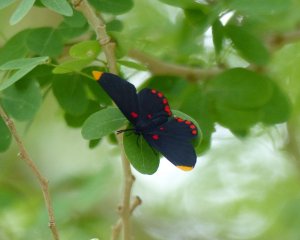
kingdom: Animalia
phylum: Arthropoda
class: Insecta
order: Lepidoptera
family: Lycaenidae
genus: Melanis
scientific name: Melanis pixe
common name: Red-bordered Pixie
